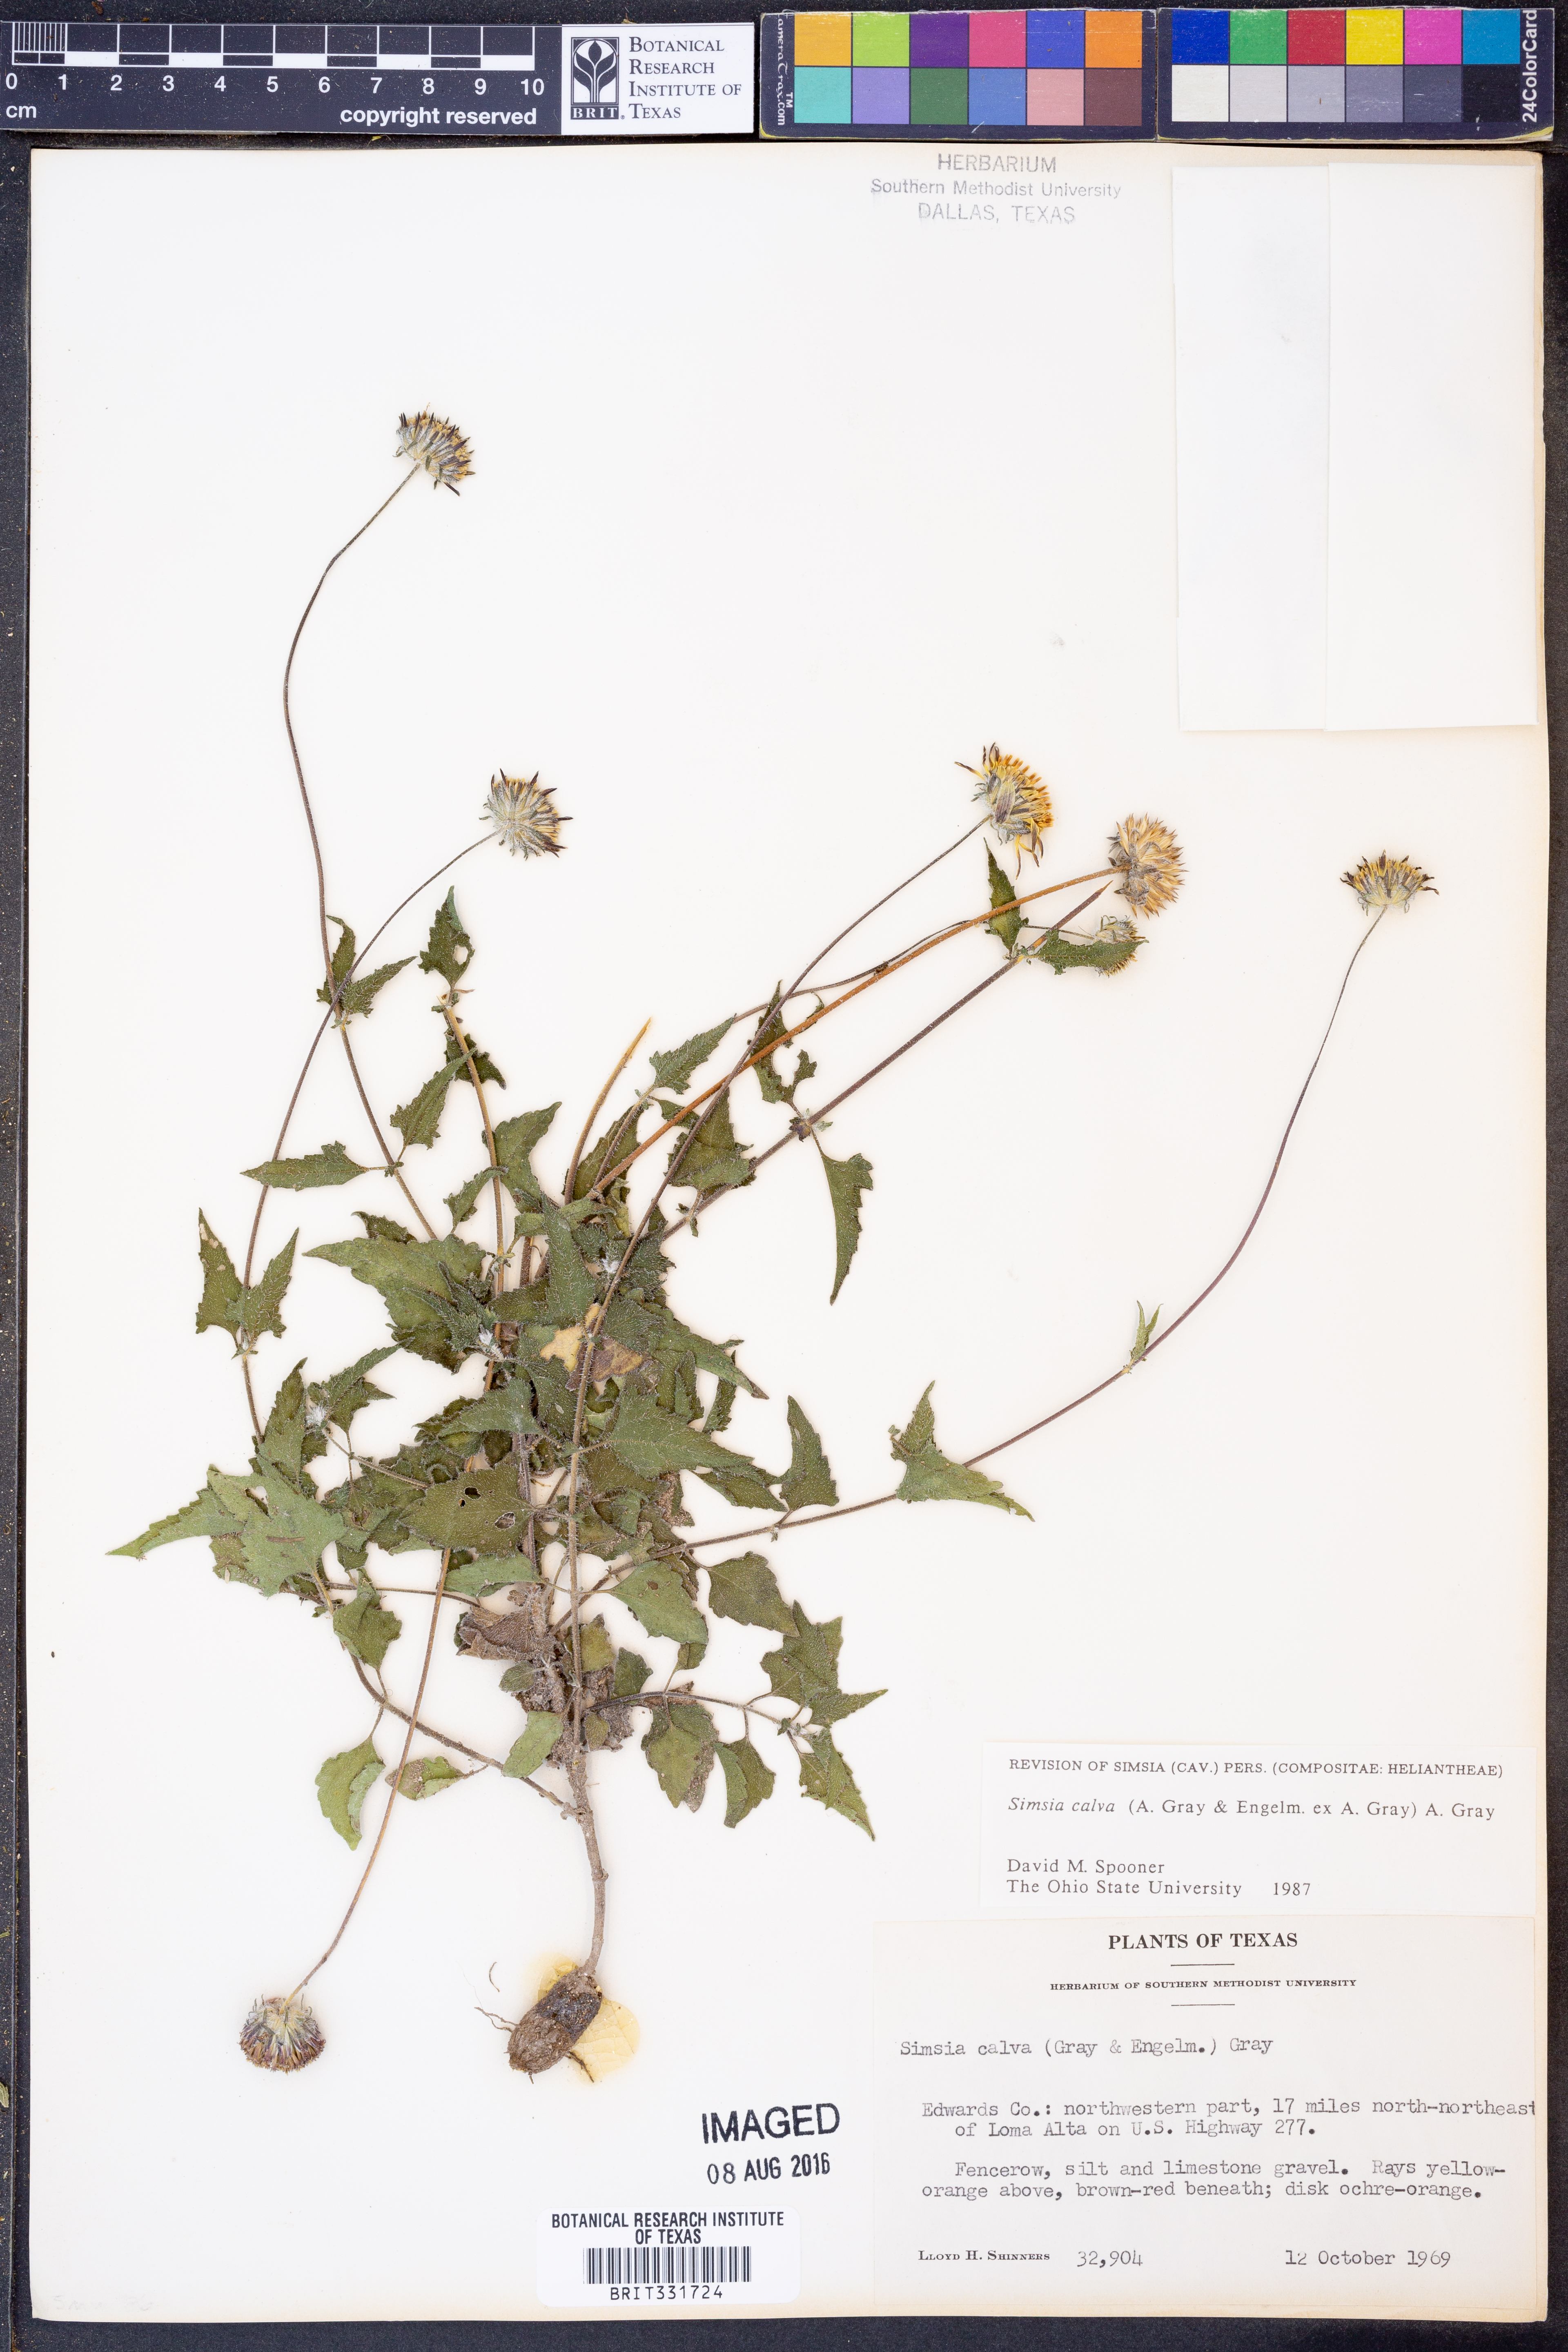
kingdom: Plantae
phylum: Tracheophyta
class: Magnoliopsida
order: Asterales
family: Asteraceae
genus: Simsia
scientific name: Simsia calva
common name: Awnless bush-sunflower
